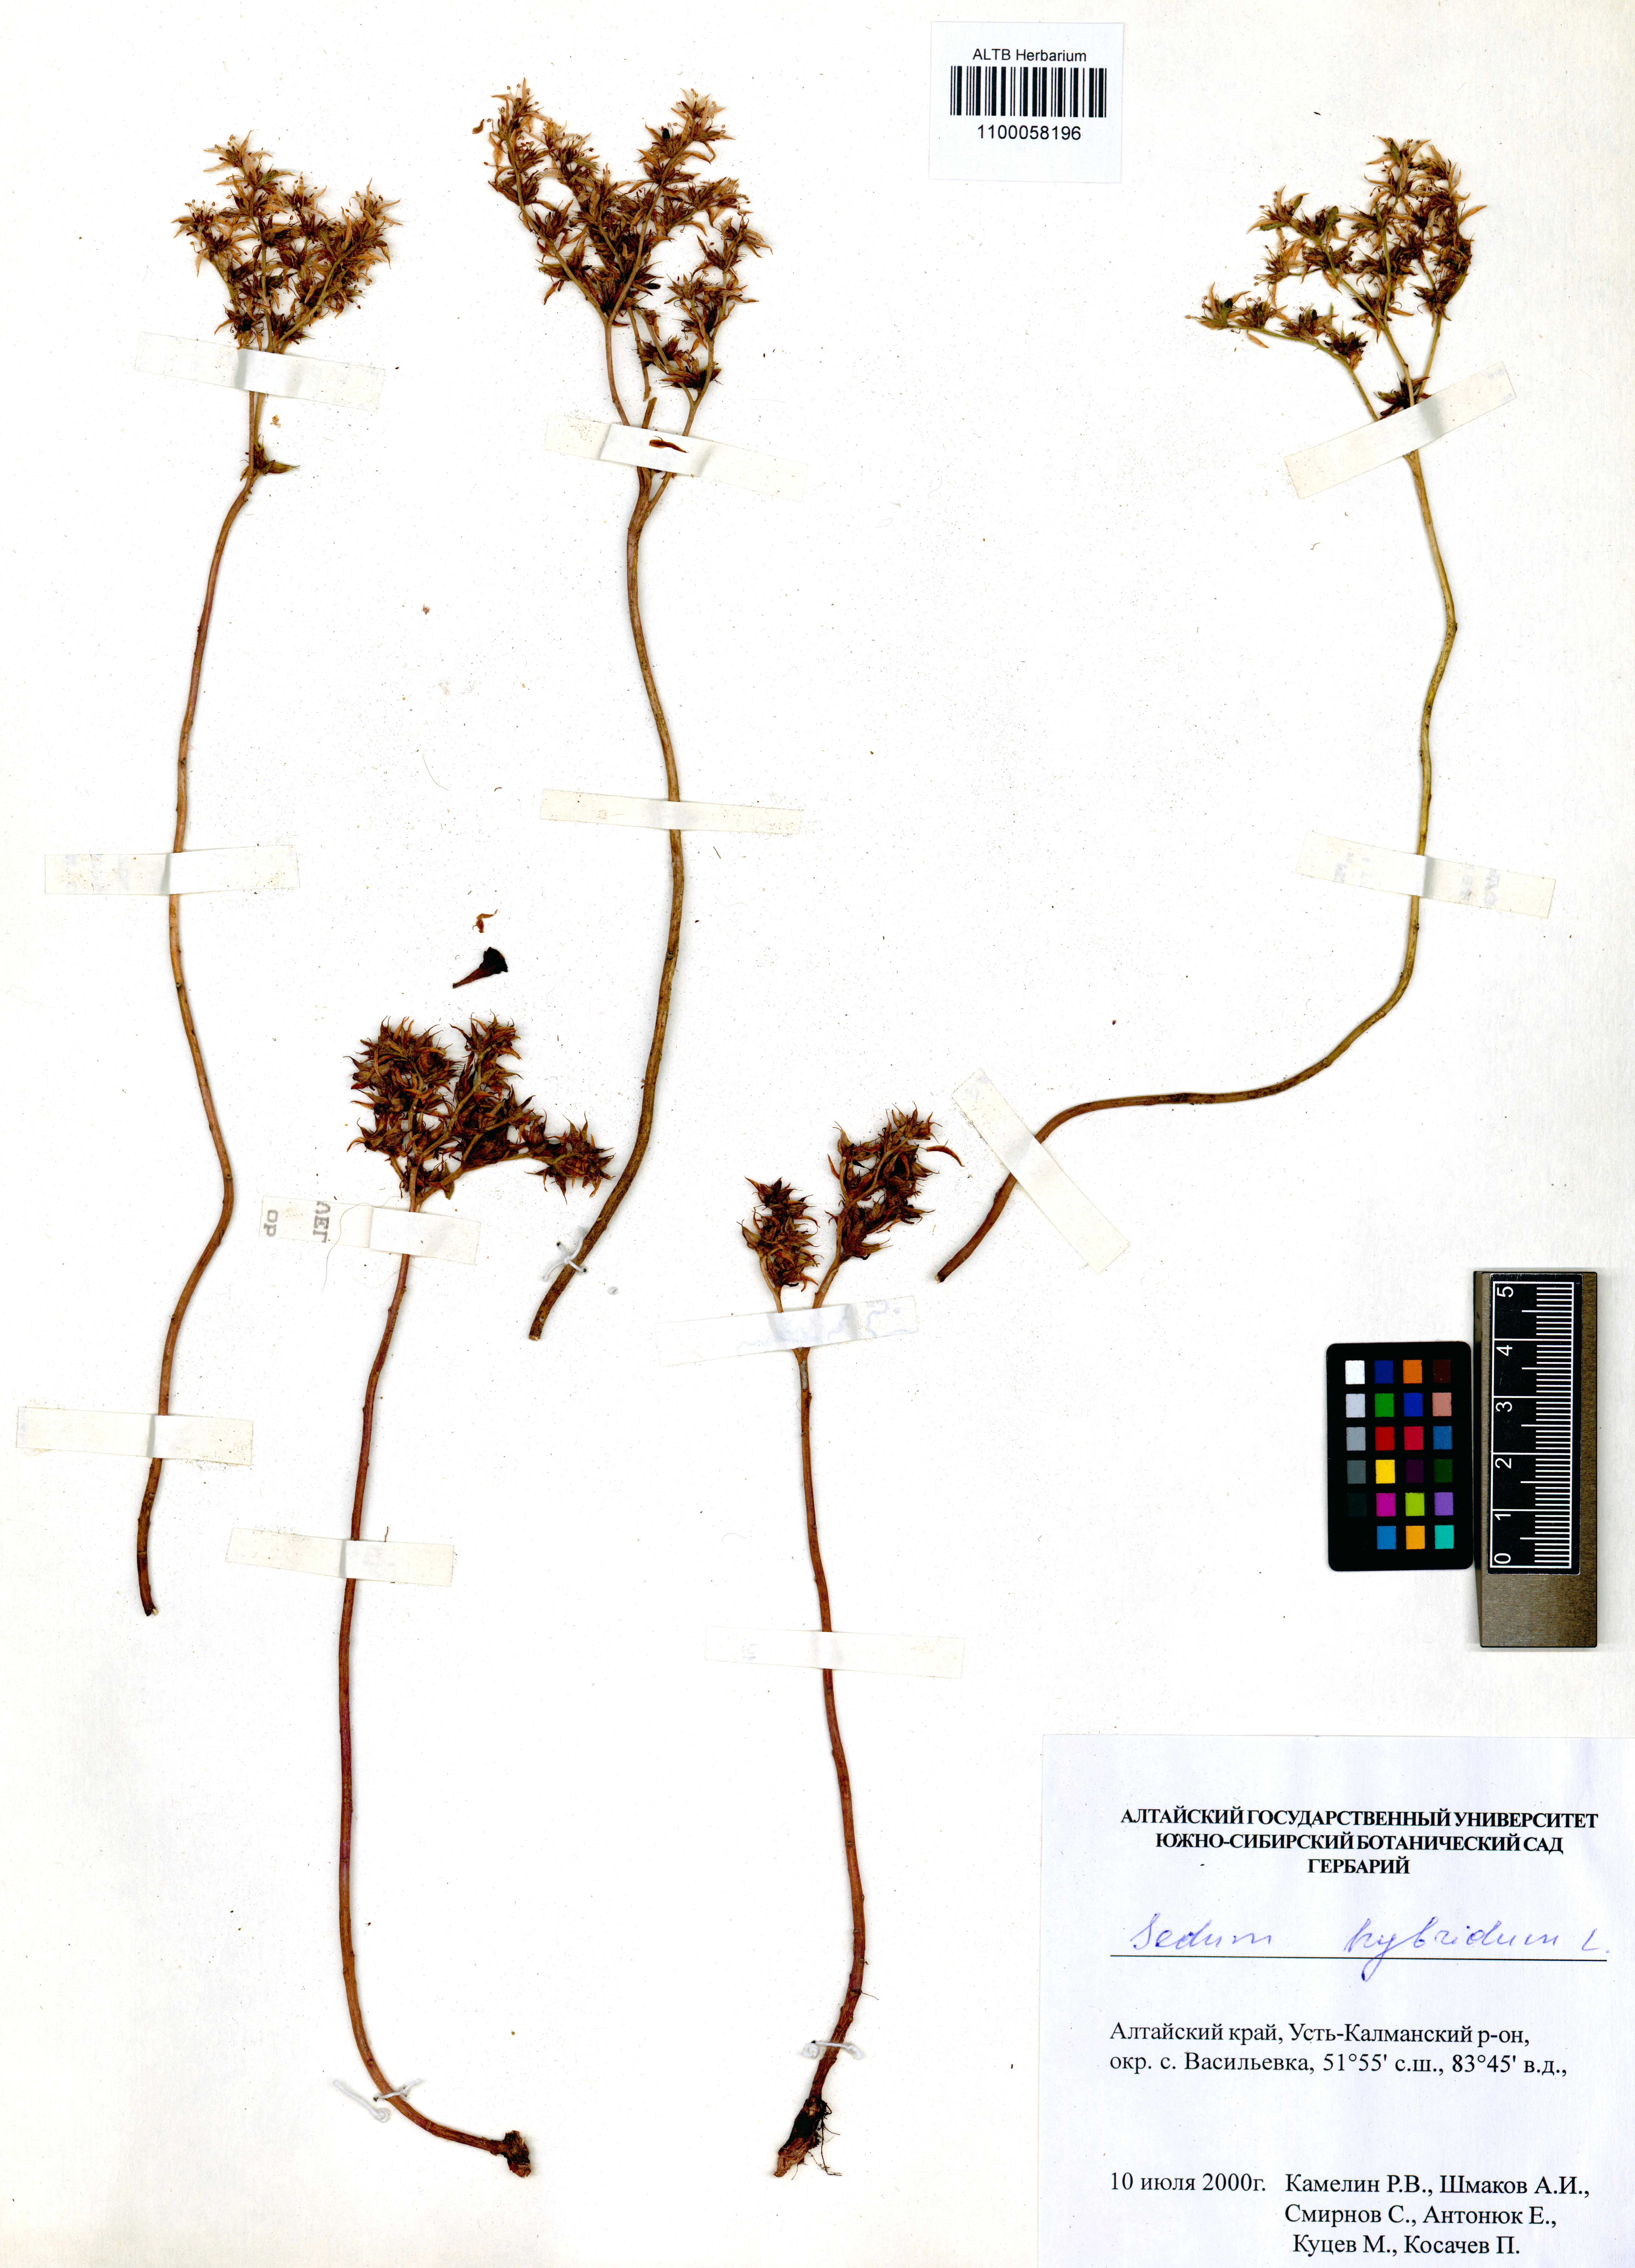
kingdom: Plantae
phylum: Tracheophyta
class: Magnoliopsida
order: Saxifragales
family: Crassulaceae
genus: Phedimus
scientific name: Phedimus hybridus
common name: Hybrid stonecrop
